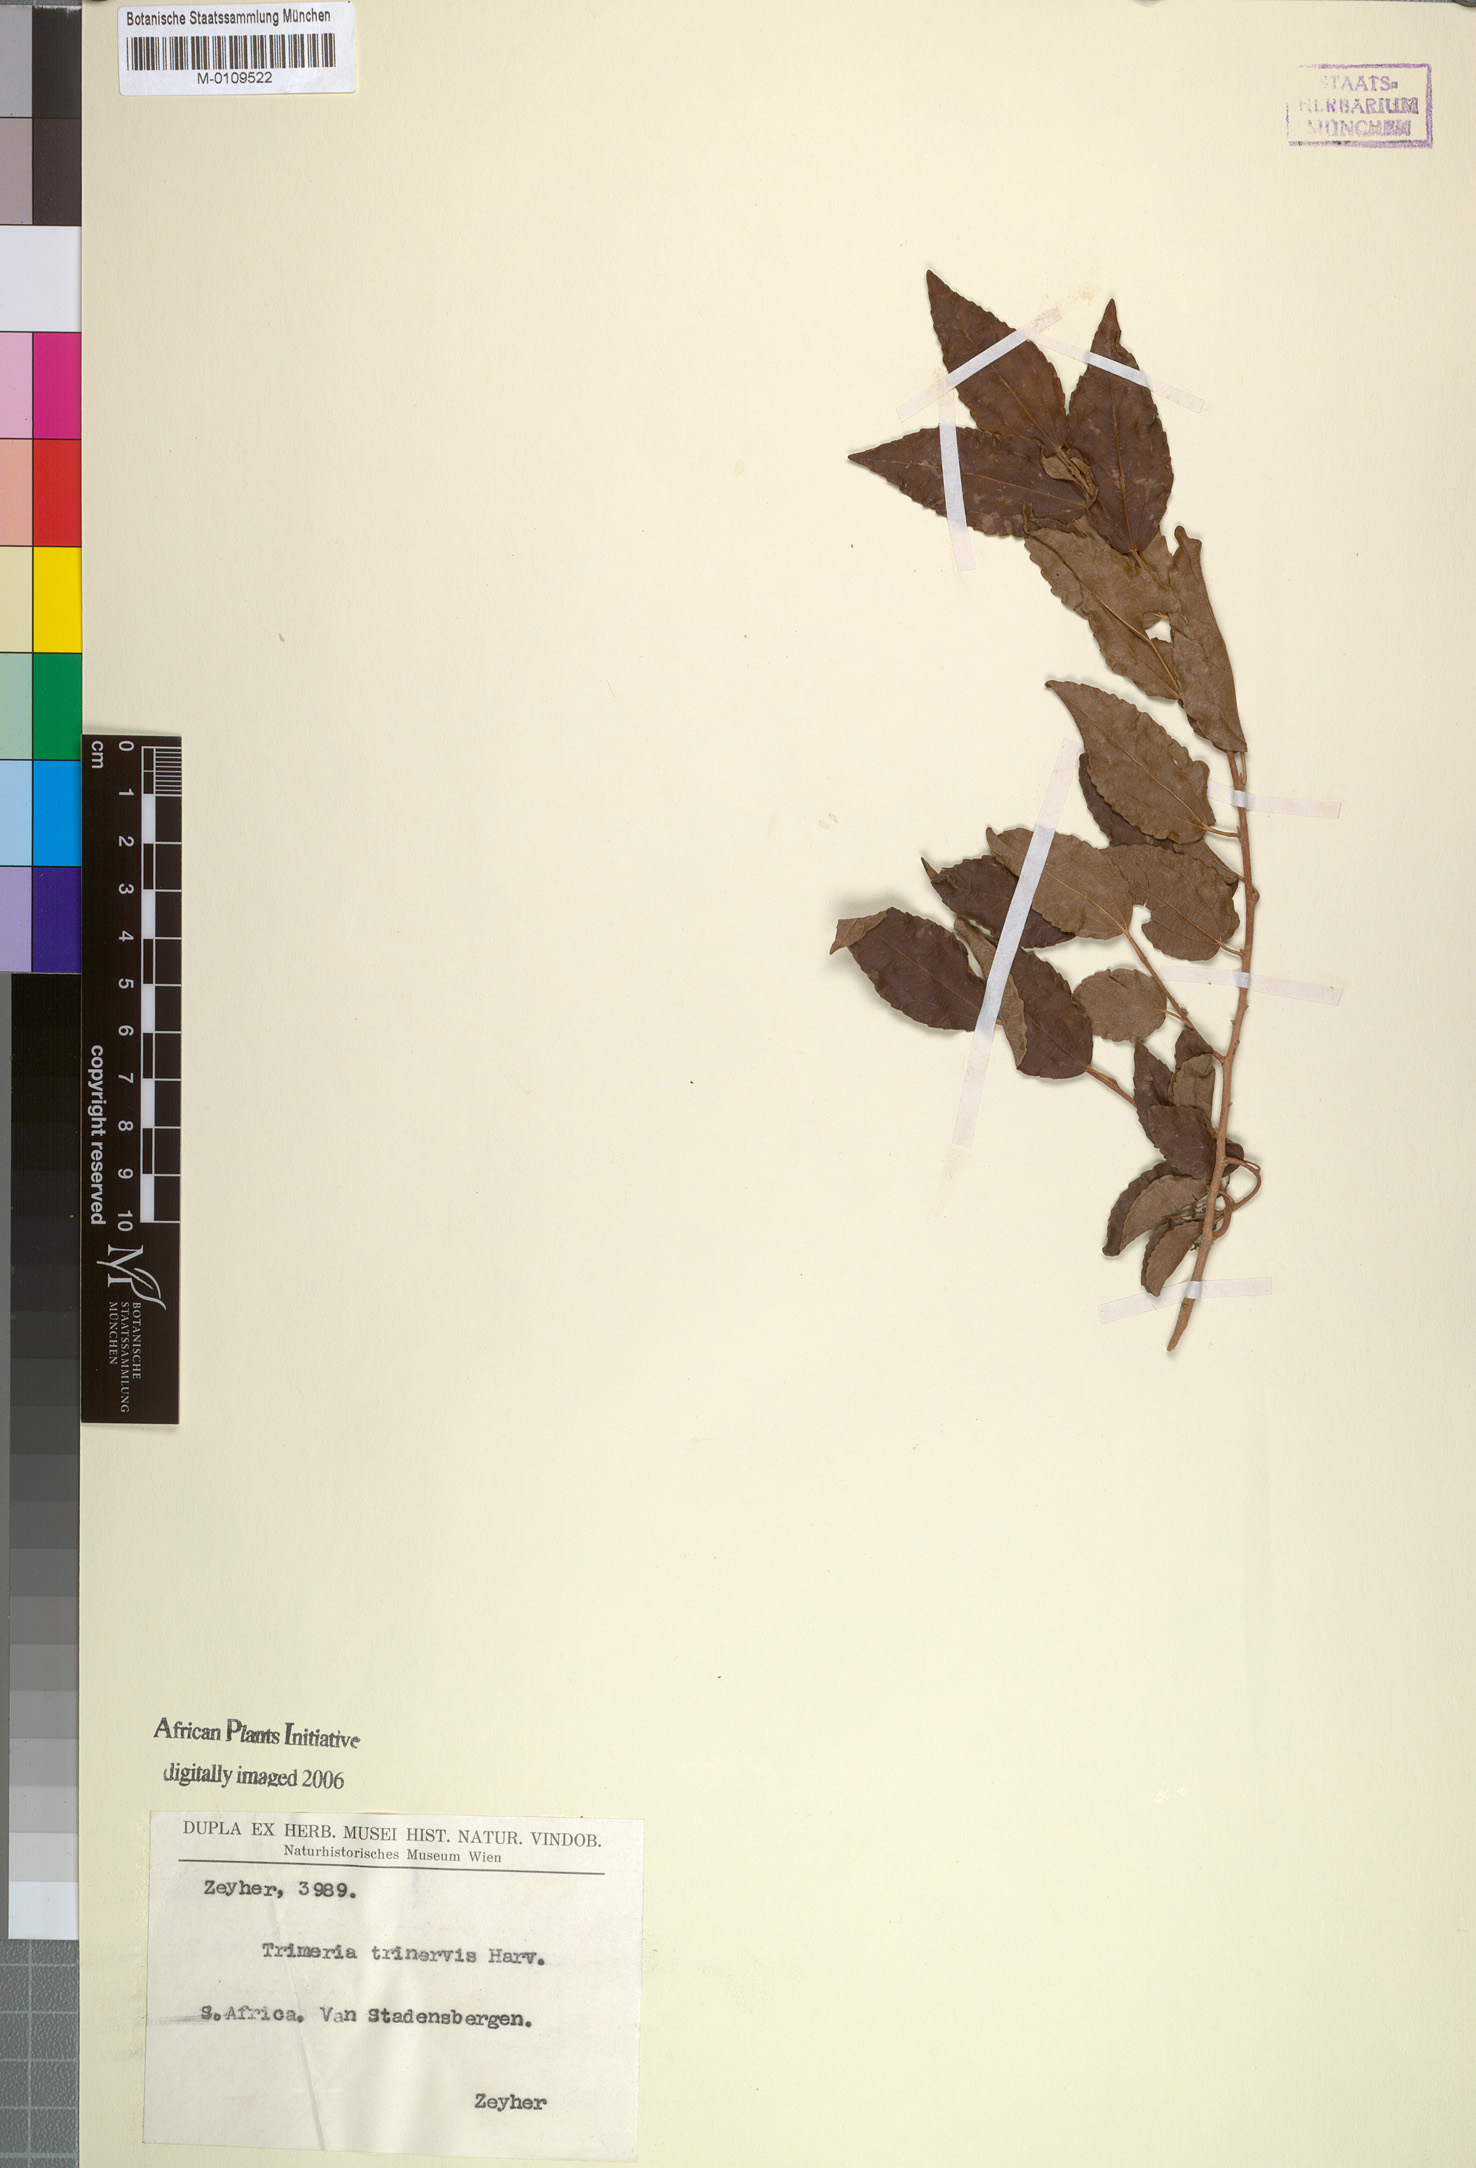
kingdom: Plantae
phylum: Tracheophyta
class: Magnoliopsida
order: Malpighiales
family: Salicaceae
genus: Trimeria
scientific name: Trimeria grandifolia
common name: Wild mulberry
